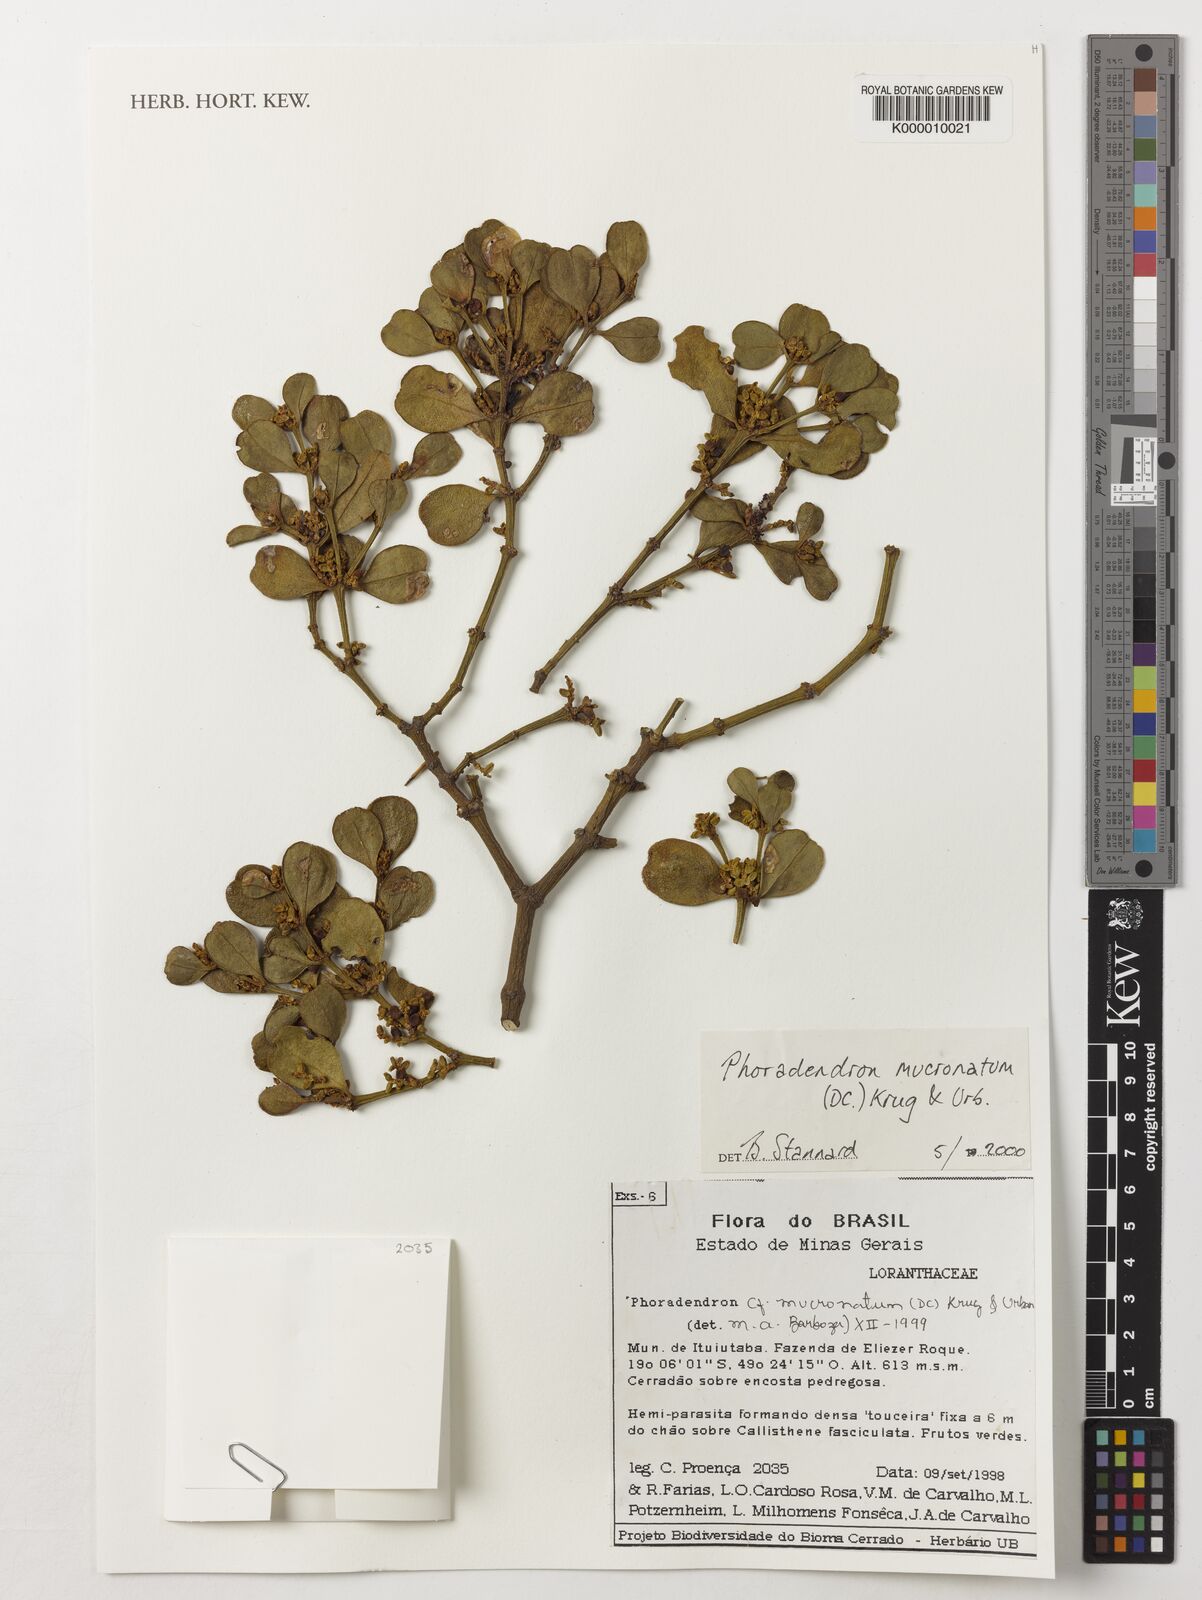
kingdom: Plantae
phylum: Tracheophyta
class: Magnoliopsida
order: Santalales
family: Viscaceae
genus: Phoradendron
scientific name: Phoradendron mucronatum
